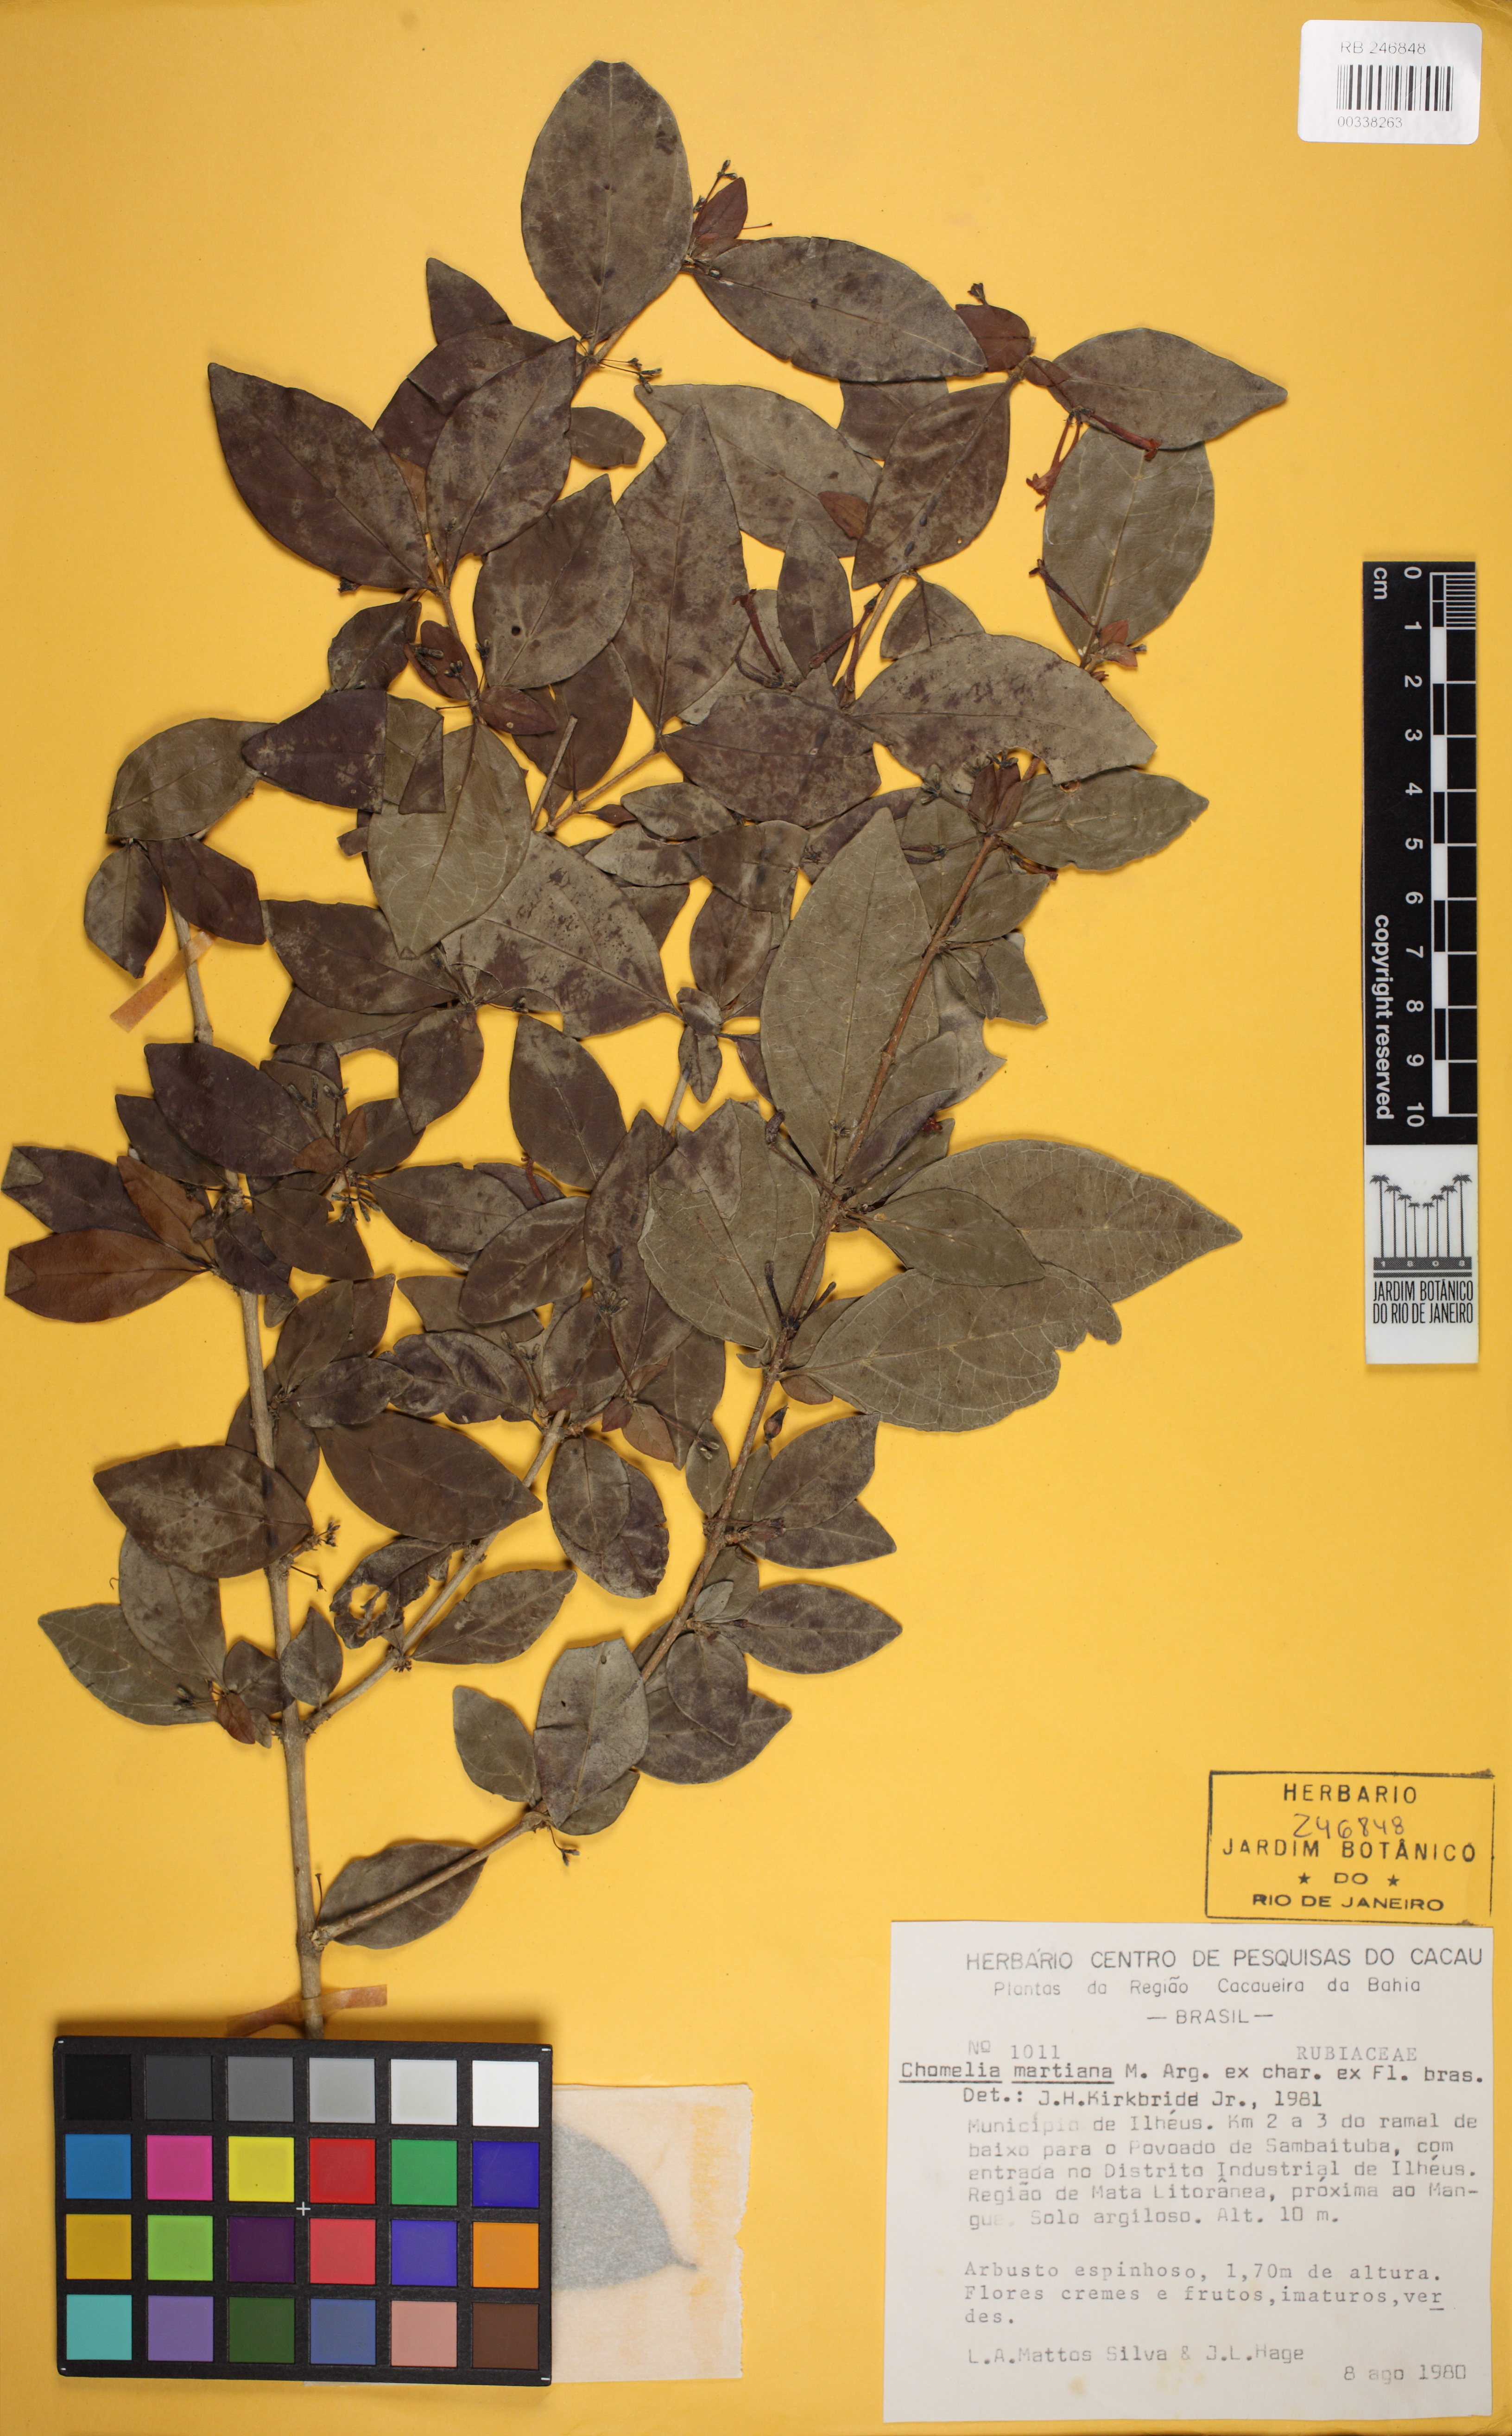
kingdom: Plantae
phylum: Tracheophyta
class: Magnoliopsida
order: Gentianales
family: Rubiaceae
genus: Chomelia
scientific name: Chomelia obtusa
